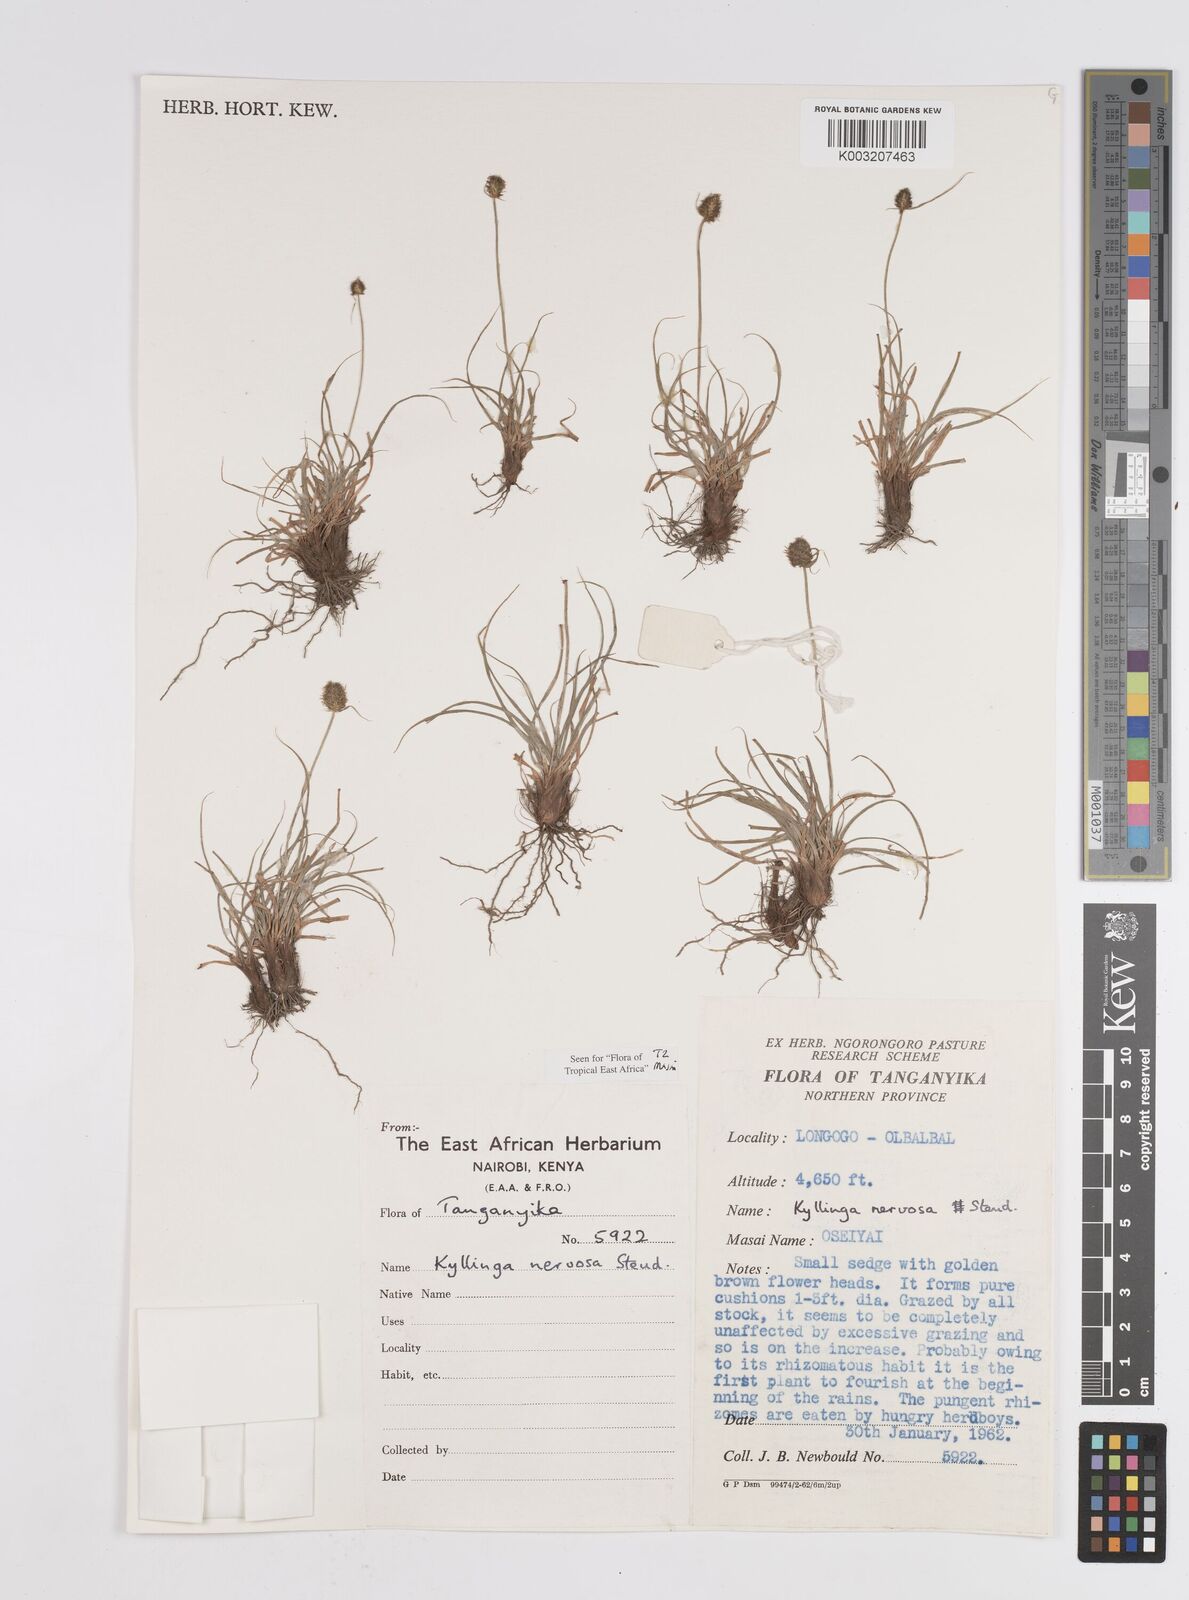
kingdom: Plantae
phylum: Tracheophyta
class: Liliopsida
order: Poales
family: Cyperaceae
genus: Cyperus
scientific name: Cyperus
